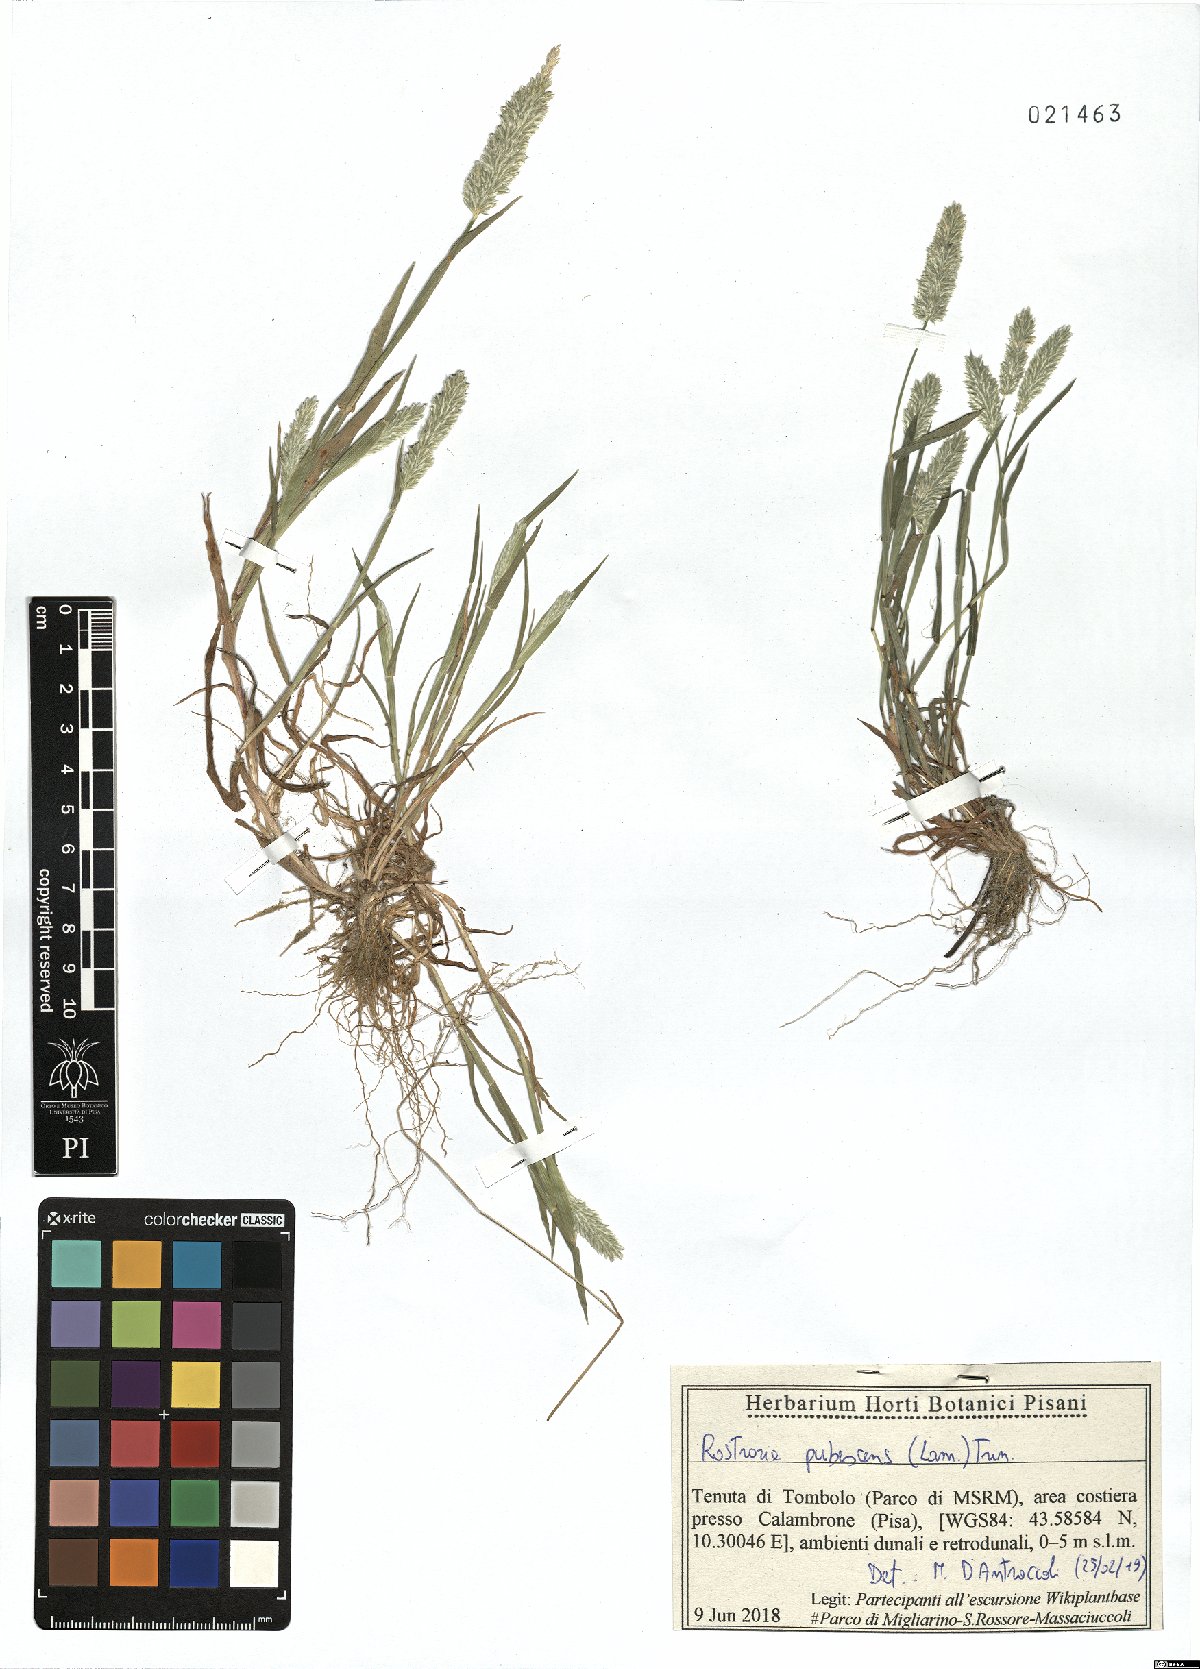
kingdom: Plantae
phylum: Tracheophyta
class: Liliopsida
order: Poales
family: Poaceae
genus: Rostraria
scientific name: Rostraria cristata
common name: Mediterranean hair-grass
